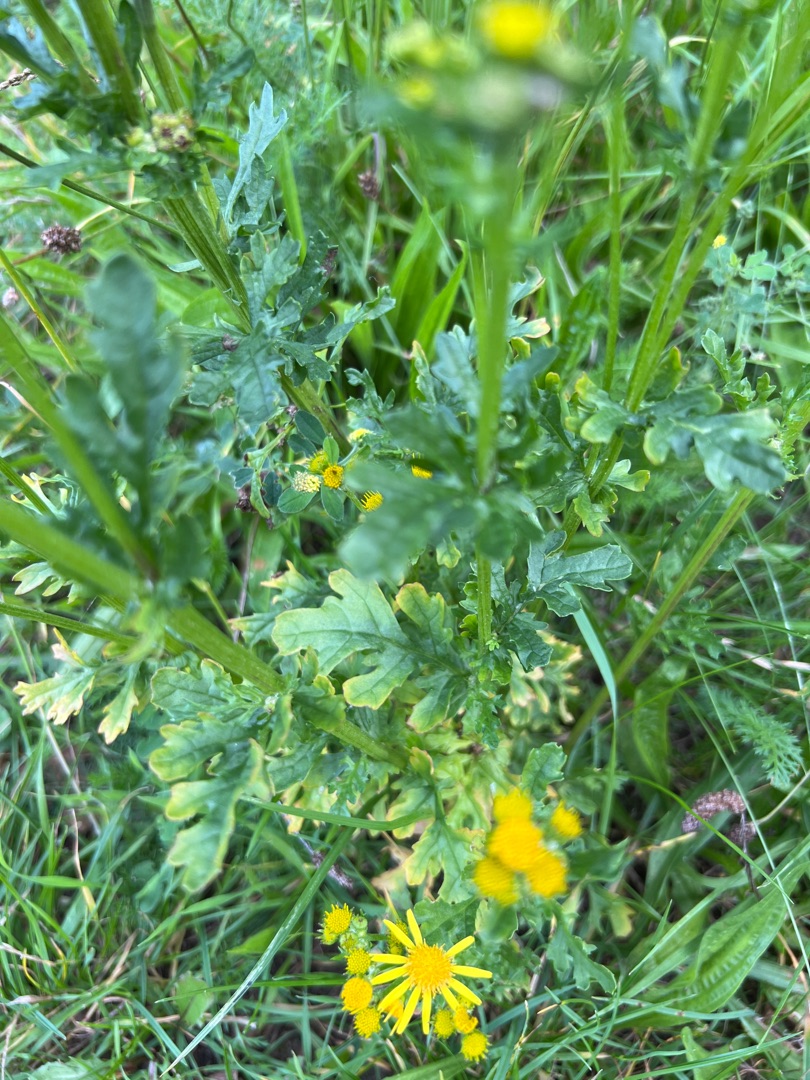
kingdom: Plantae
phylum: Tracheophyta
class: Magnoliopsida
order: Asterales
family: Asteraceae
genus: Jacobaea
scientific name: Jacobaea vulgaris
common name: Eng-brandbæger
